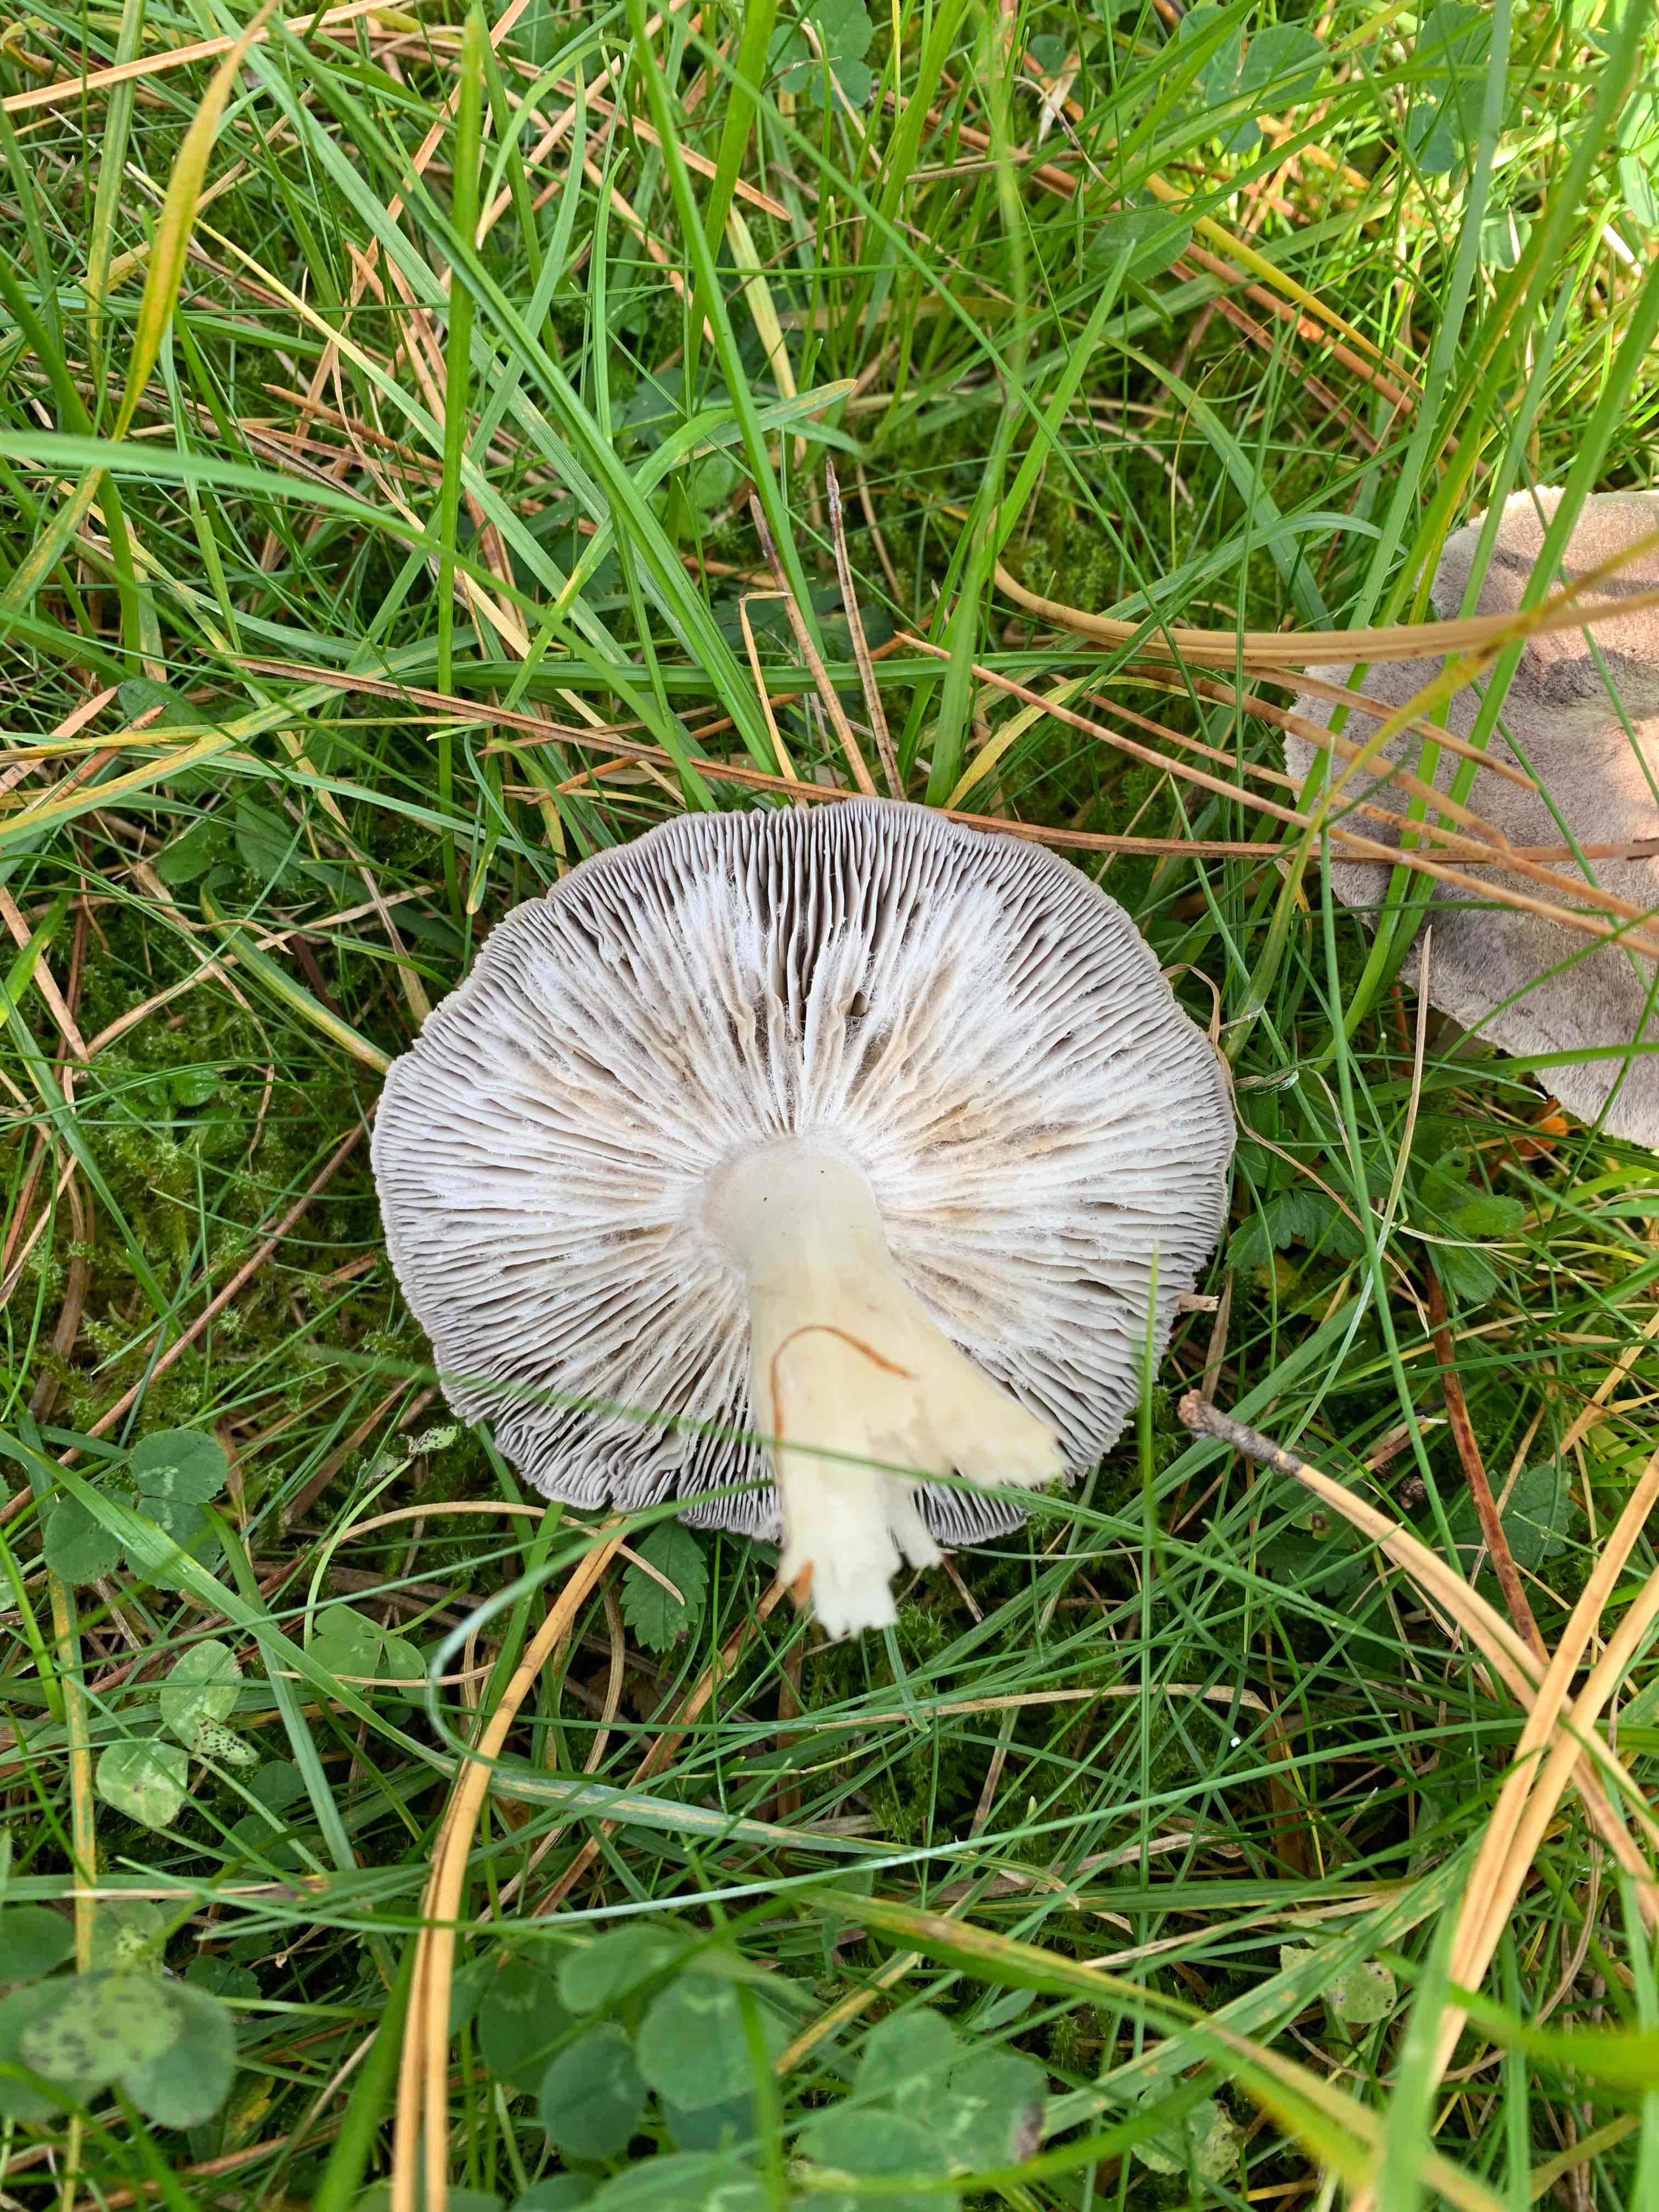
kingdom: Fungi
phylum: Basidiomycota
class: Agaricomycetes
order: Agaricales
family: Tricholomataceae
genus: Tricholoma
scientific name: Tricholoma terreum
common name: jordfarvet ridderhat
